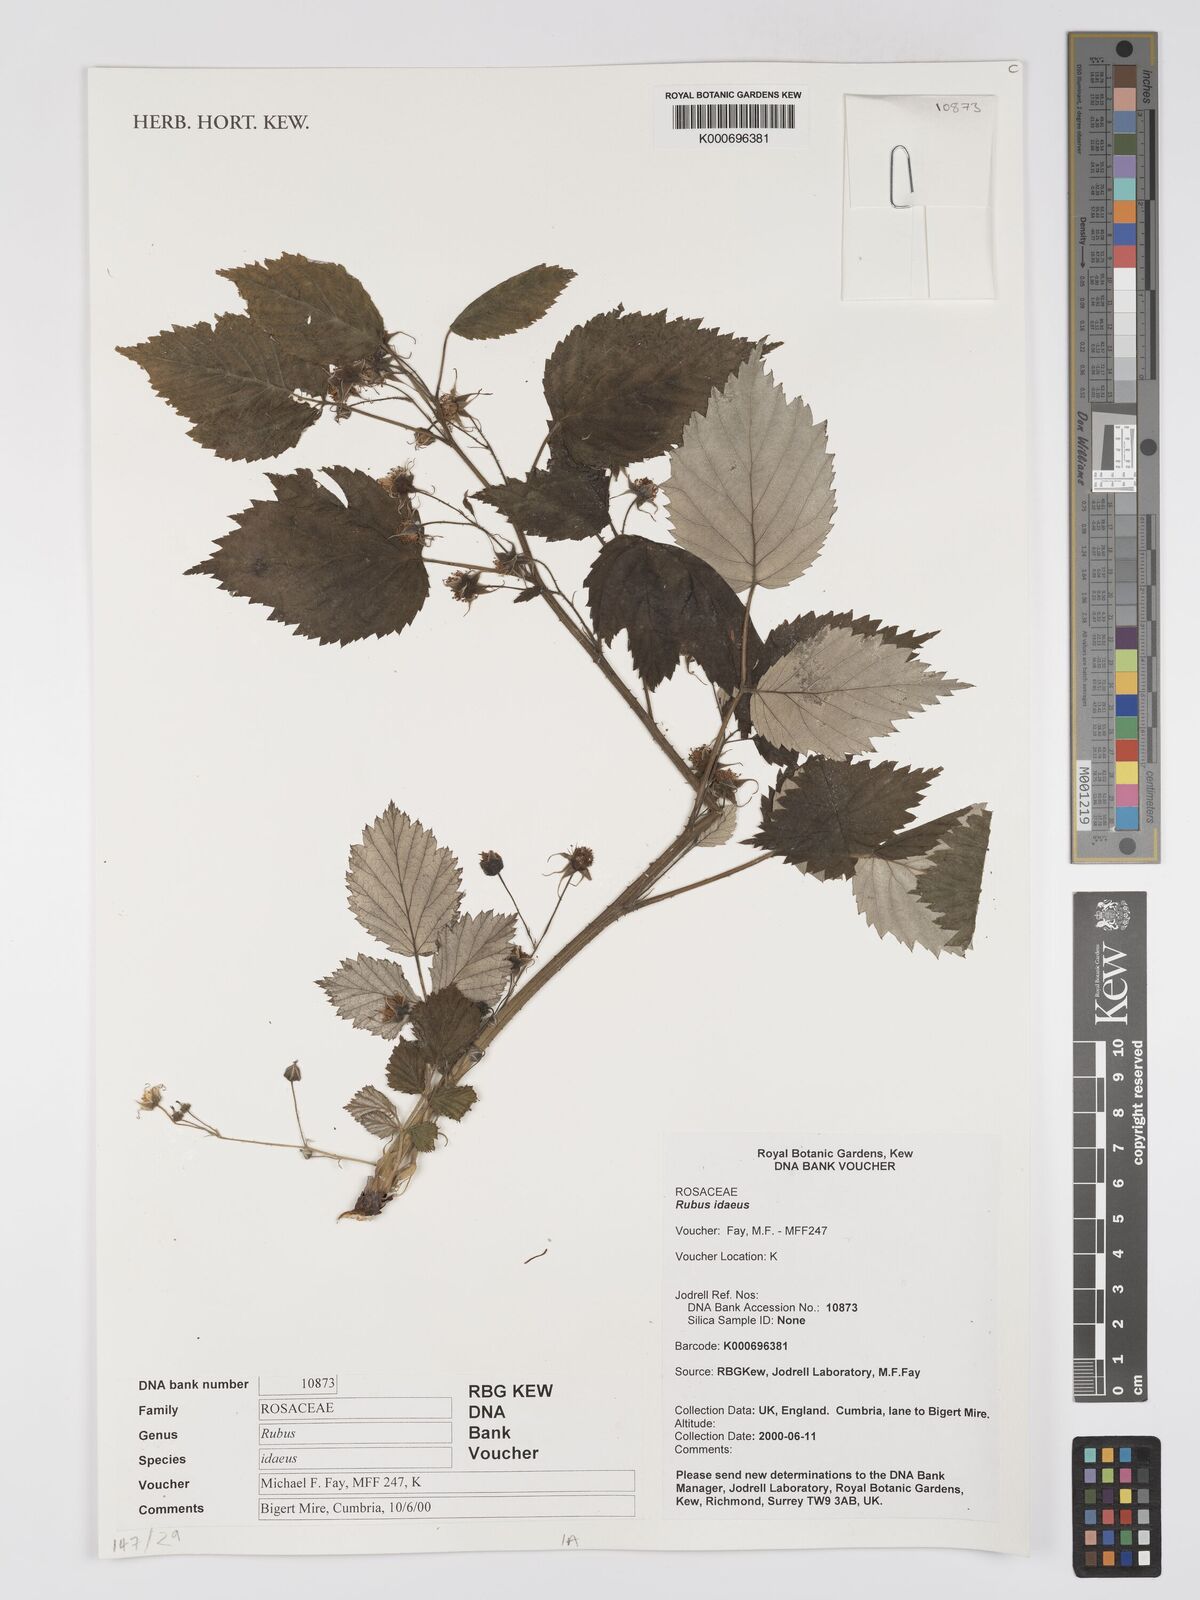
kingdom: Plantae
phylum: Tracheophyta
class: Magnoliopsida
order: Rosales
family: Rosaceae
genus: Rubus
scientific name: Rubus idaeus
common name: Raspberry
